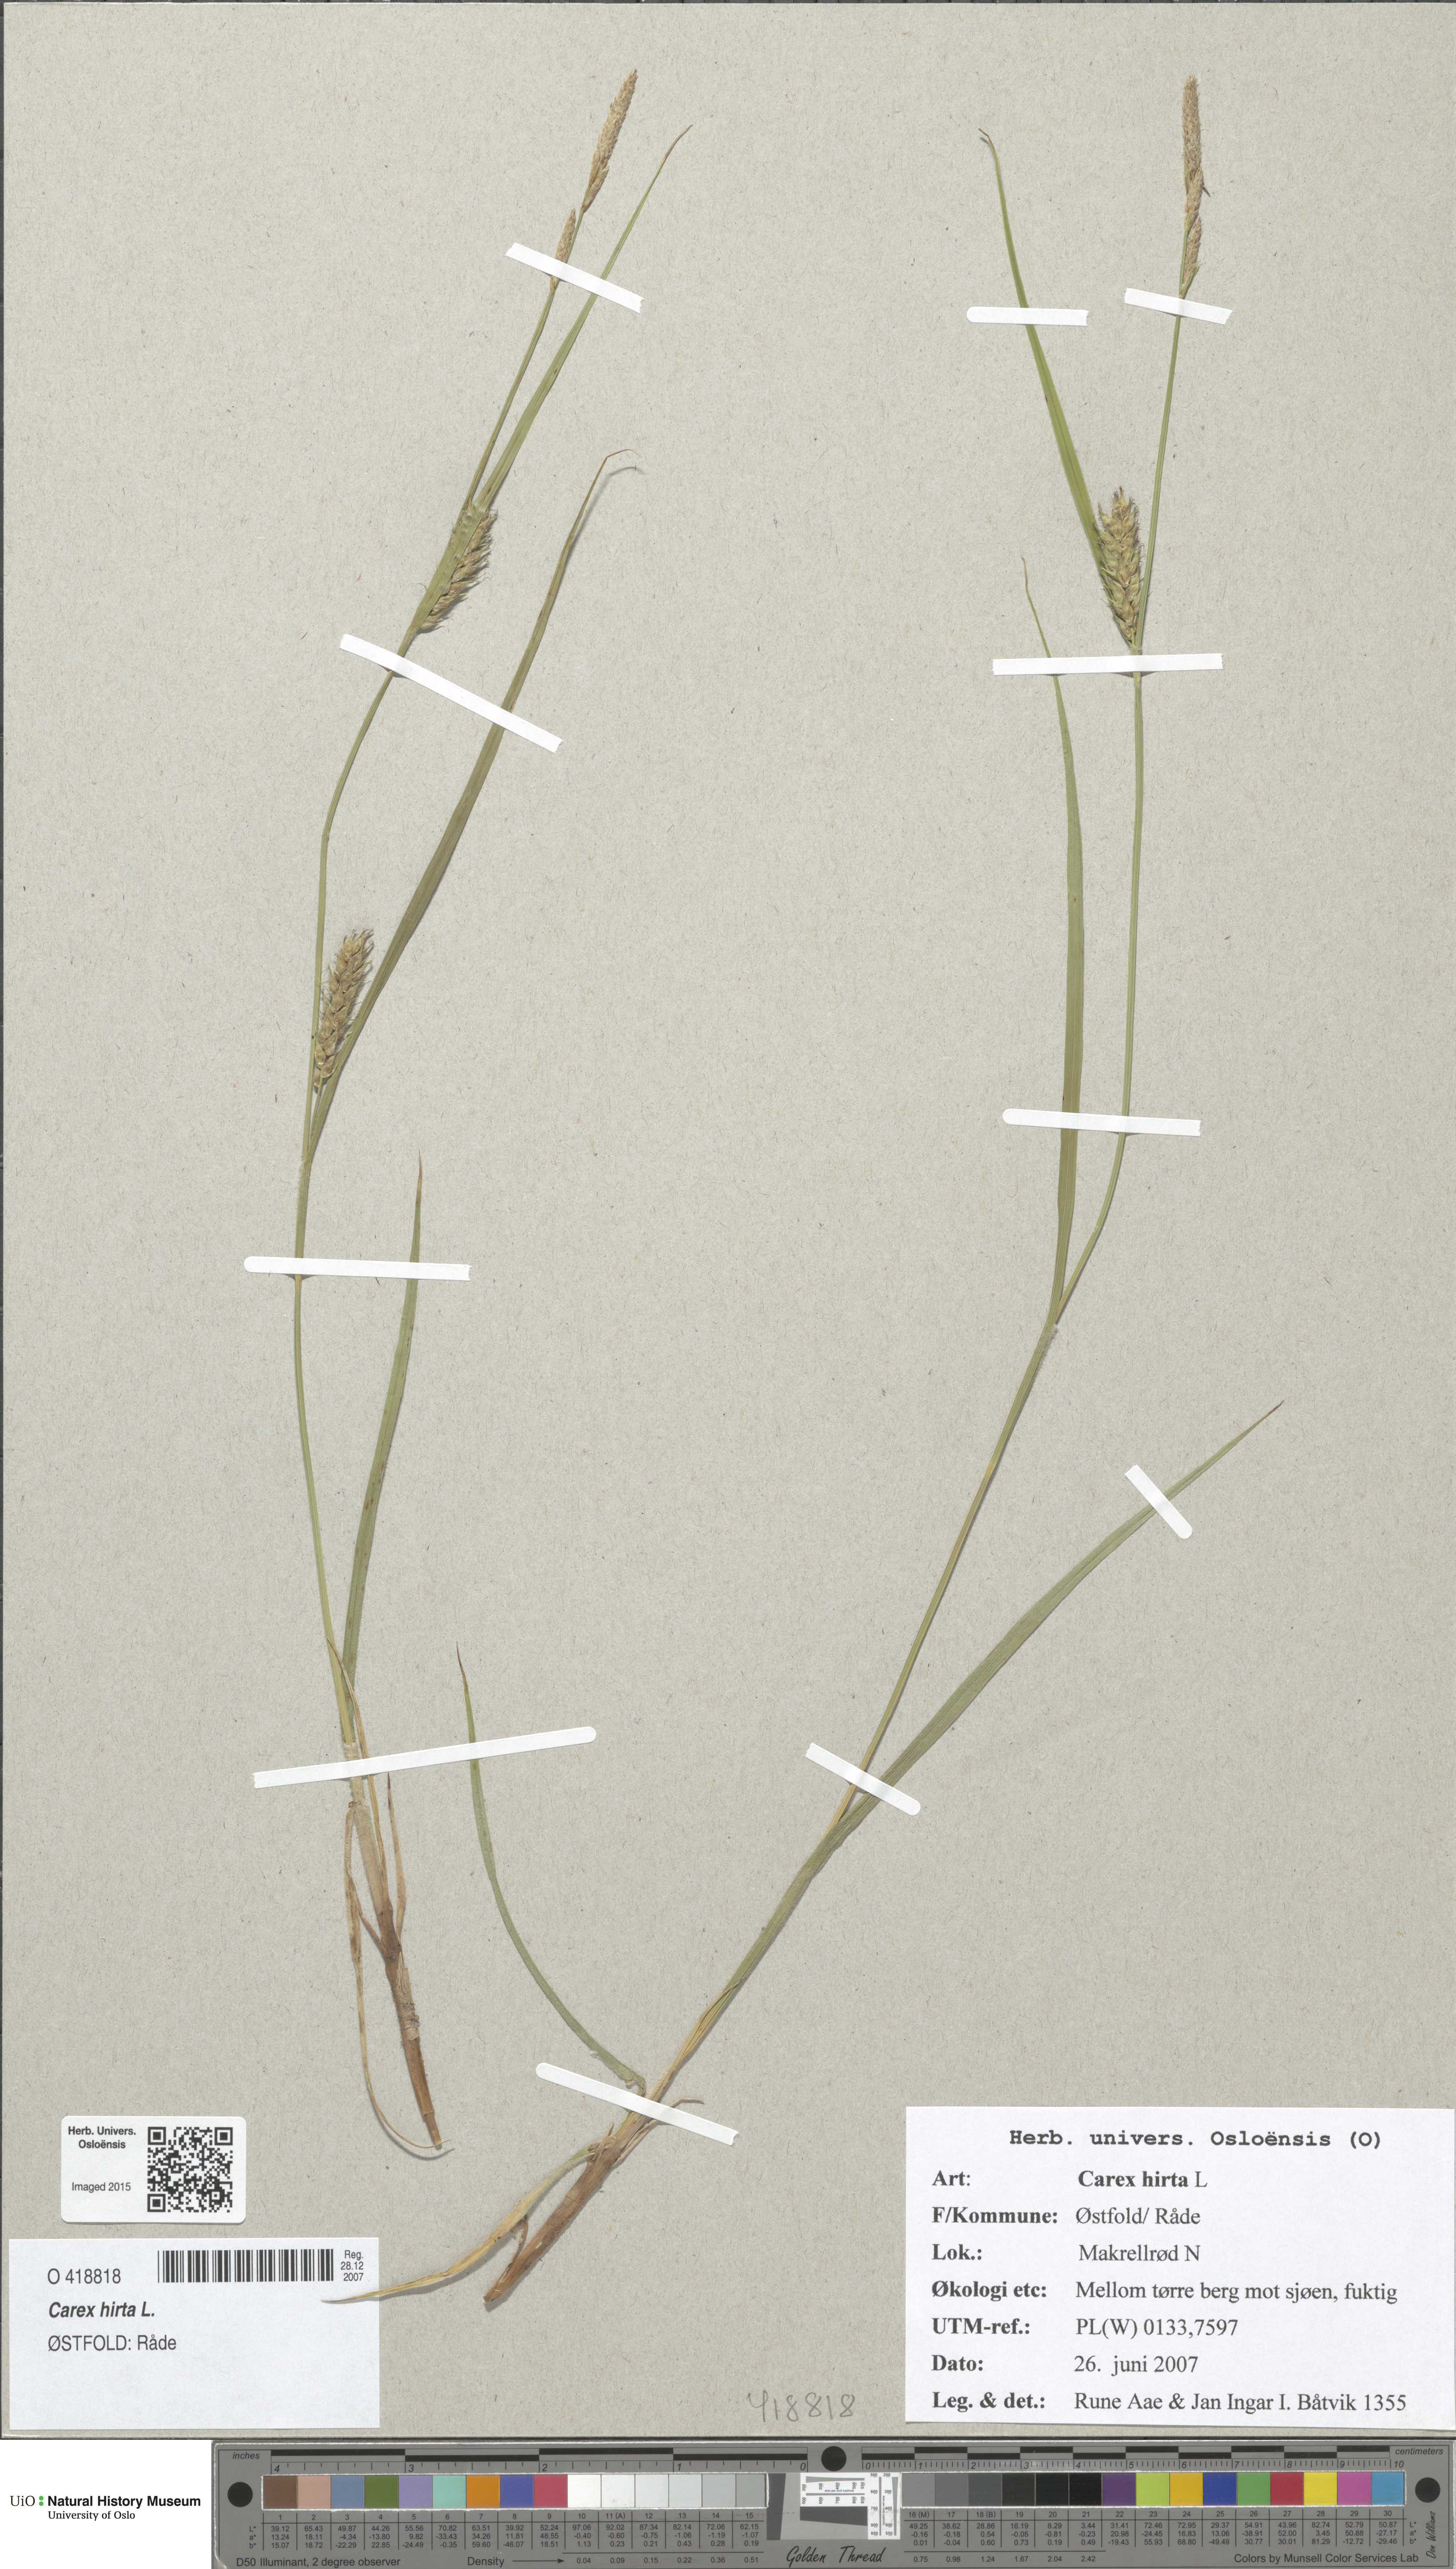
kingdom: Plantae
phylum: Tracheophyta
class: Liliopsida
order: Poales
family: Cyperaceae
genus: Carex
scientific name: Carex hirta
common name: Hairy sedge
